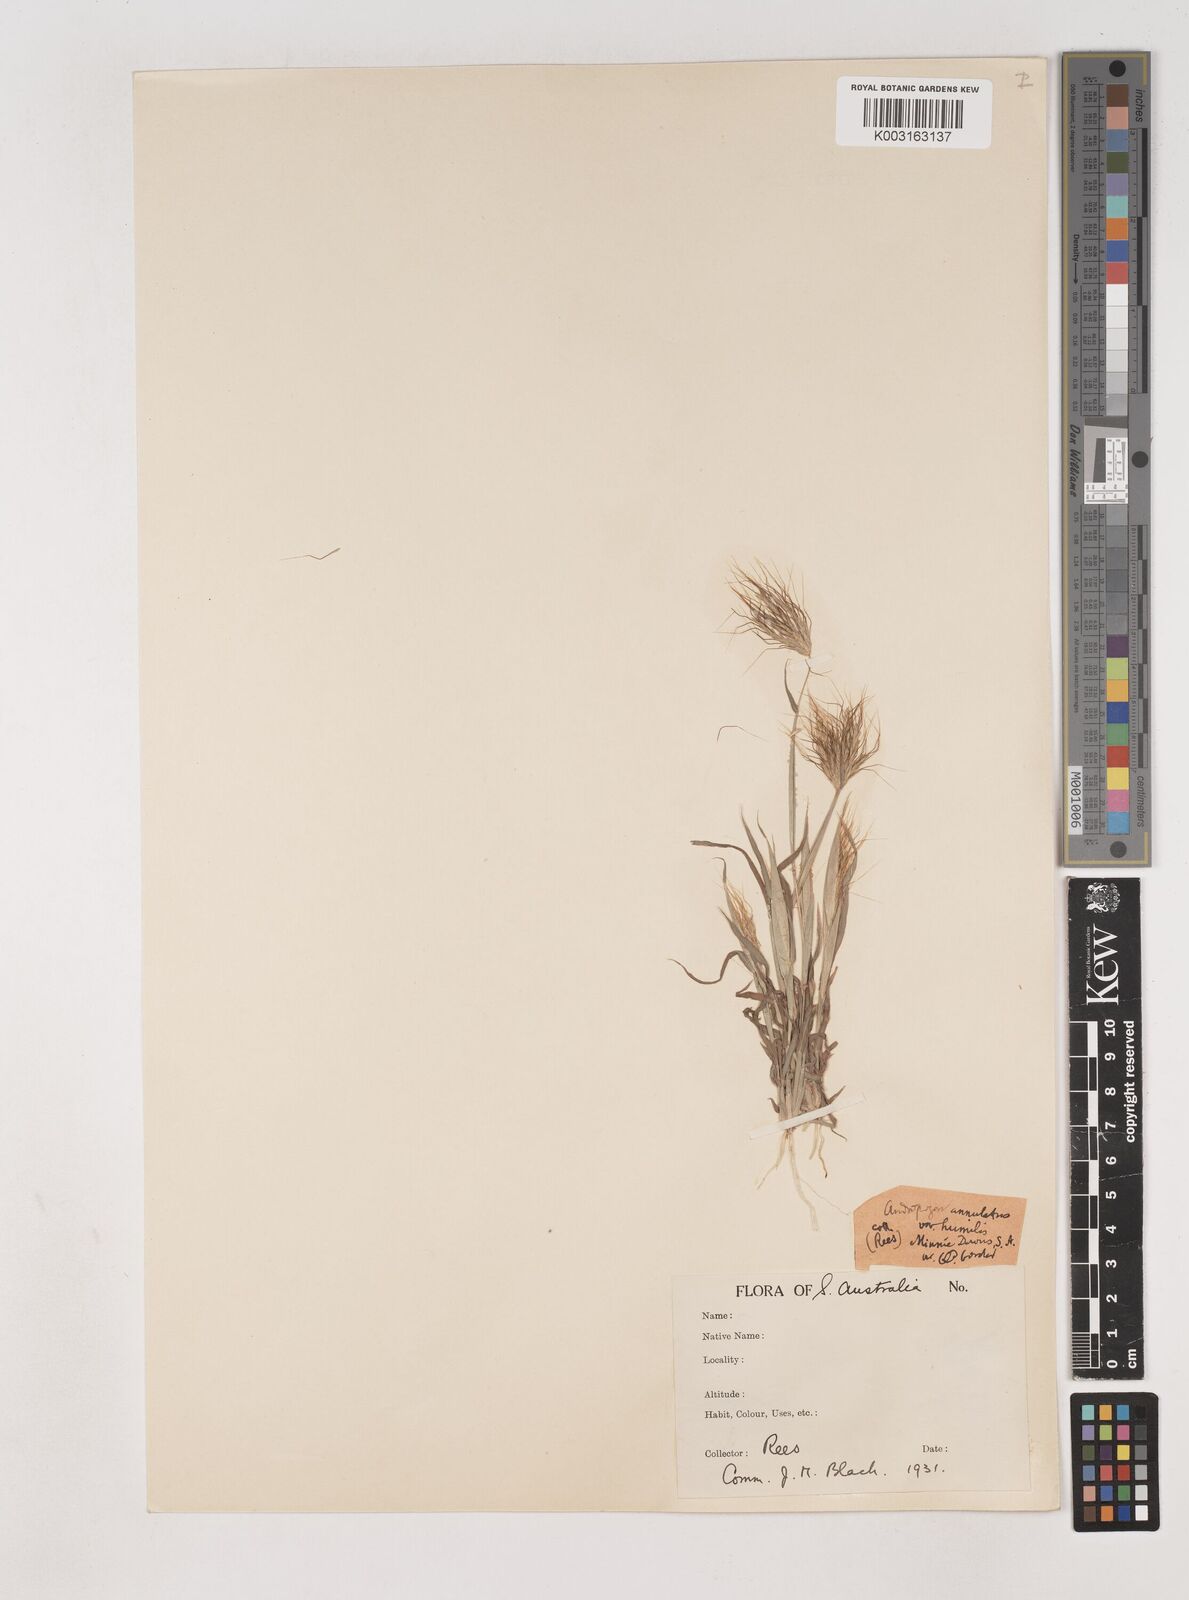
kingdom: Plantae
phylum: Tracheophyta
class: Liliopsida
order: Poales
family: Poaceae
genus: Dichanthium
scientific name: Dichanthium sericeum
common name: Silky bluestem
